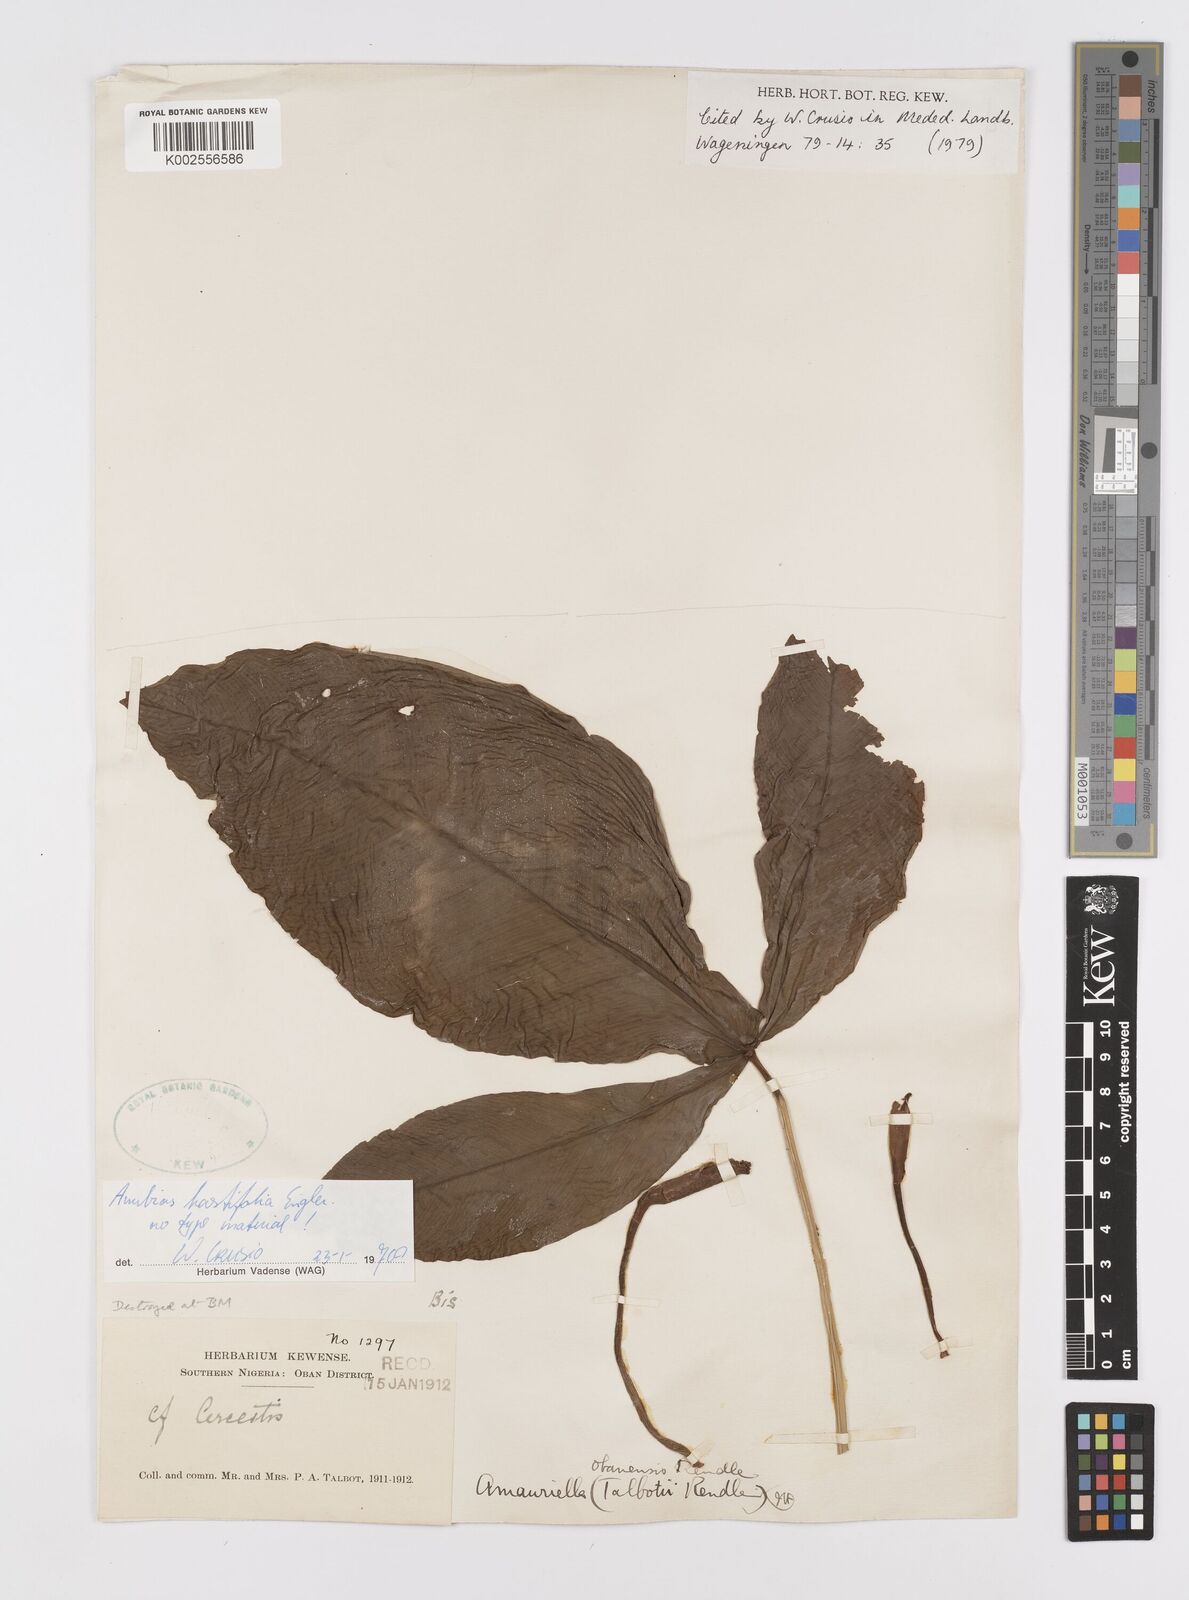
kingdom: Plantae
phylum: Tracheophyta
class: Liliopsida
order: Alismatales
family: Araceae
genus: Anubias
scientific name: Anubias hastifolia
